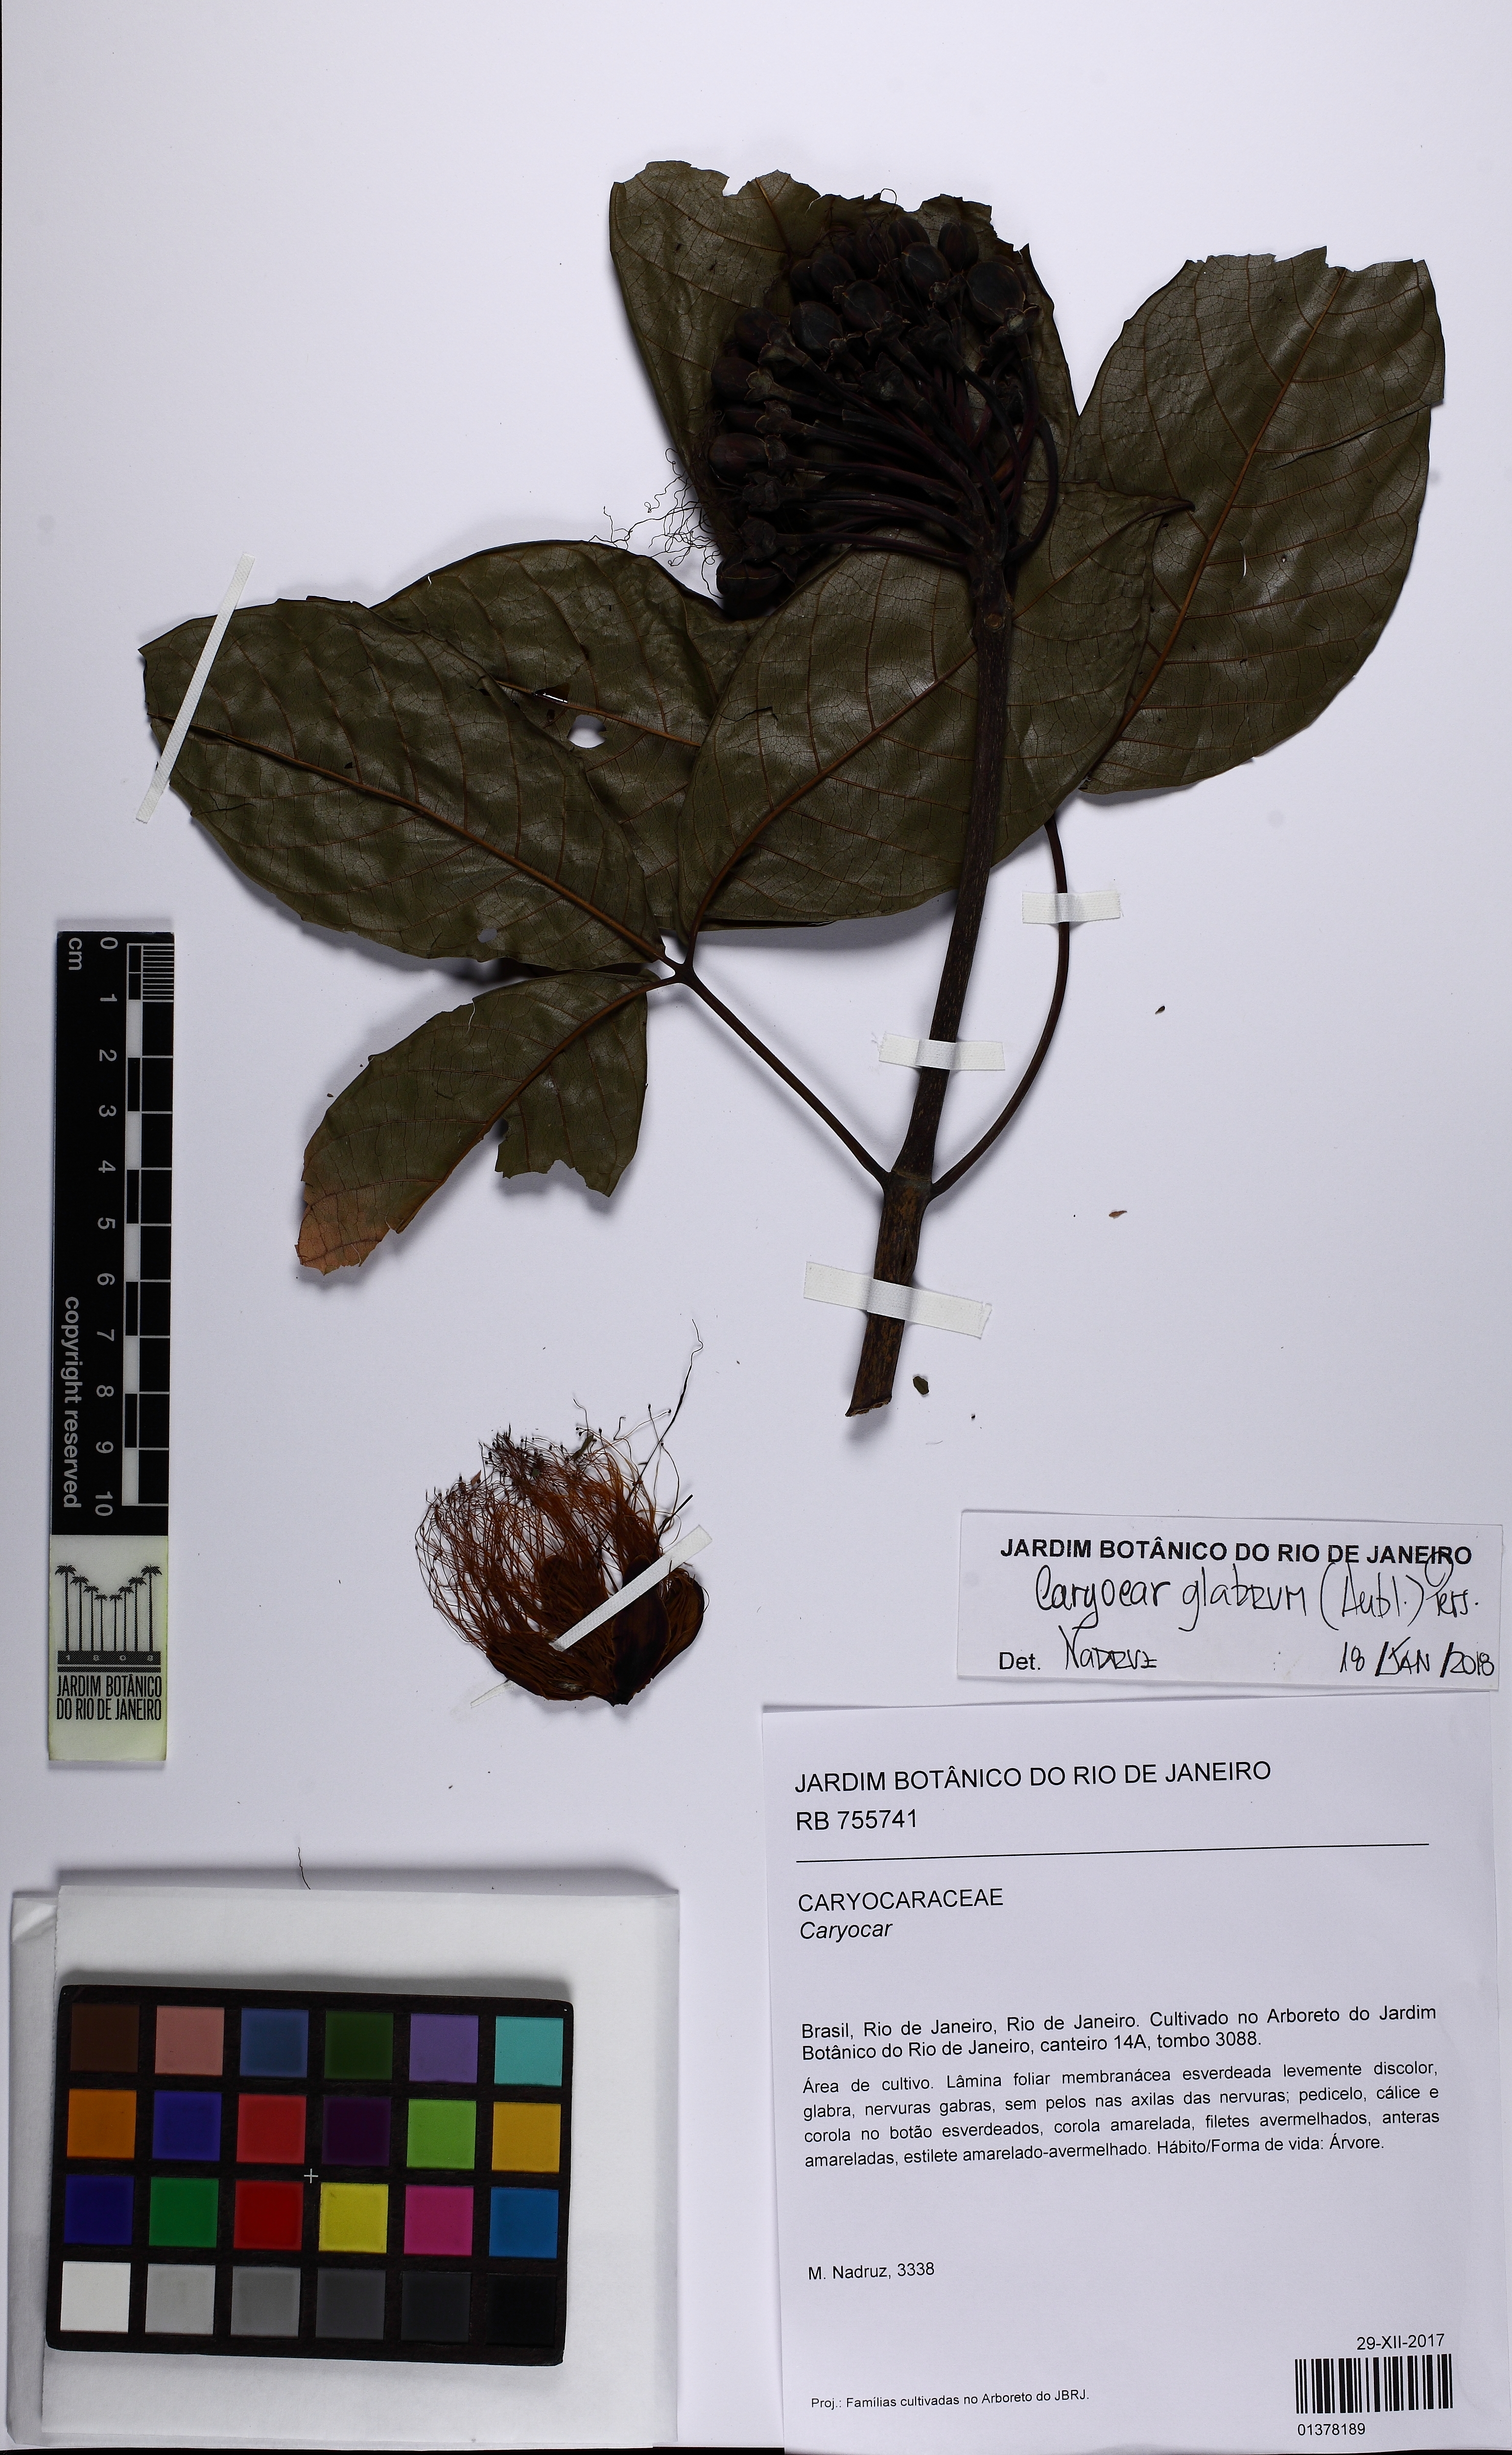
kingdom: Plantae
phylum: Tracheophyta
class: Magnoliopsida
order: Malpighiales
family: Caryocaraceae
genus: Caryocar
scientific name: Caryocar glabrum
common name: Bat's souari
